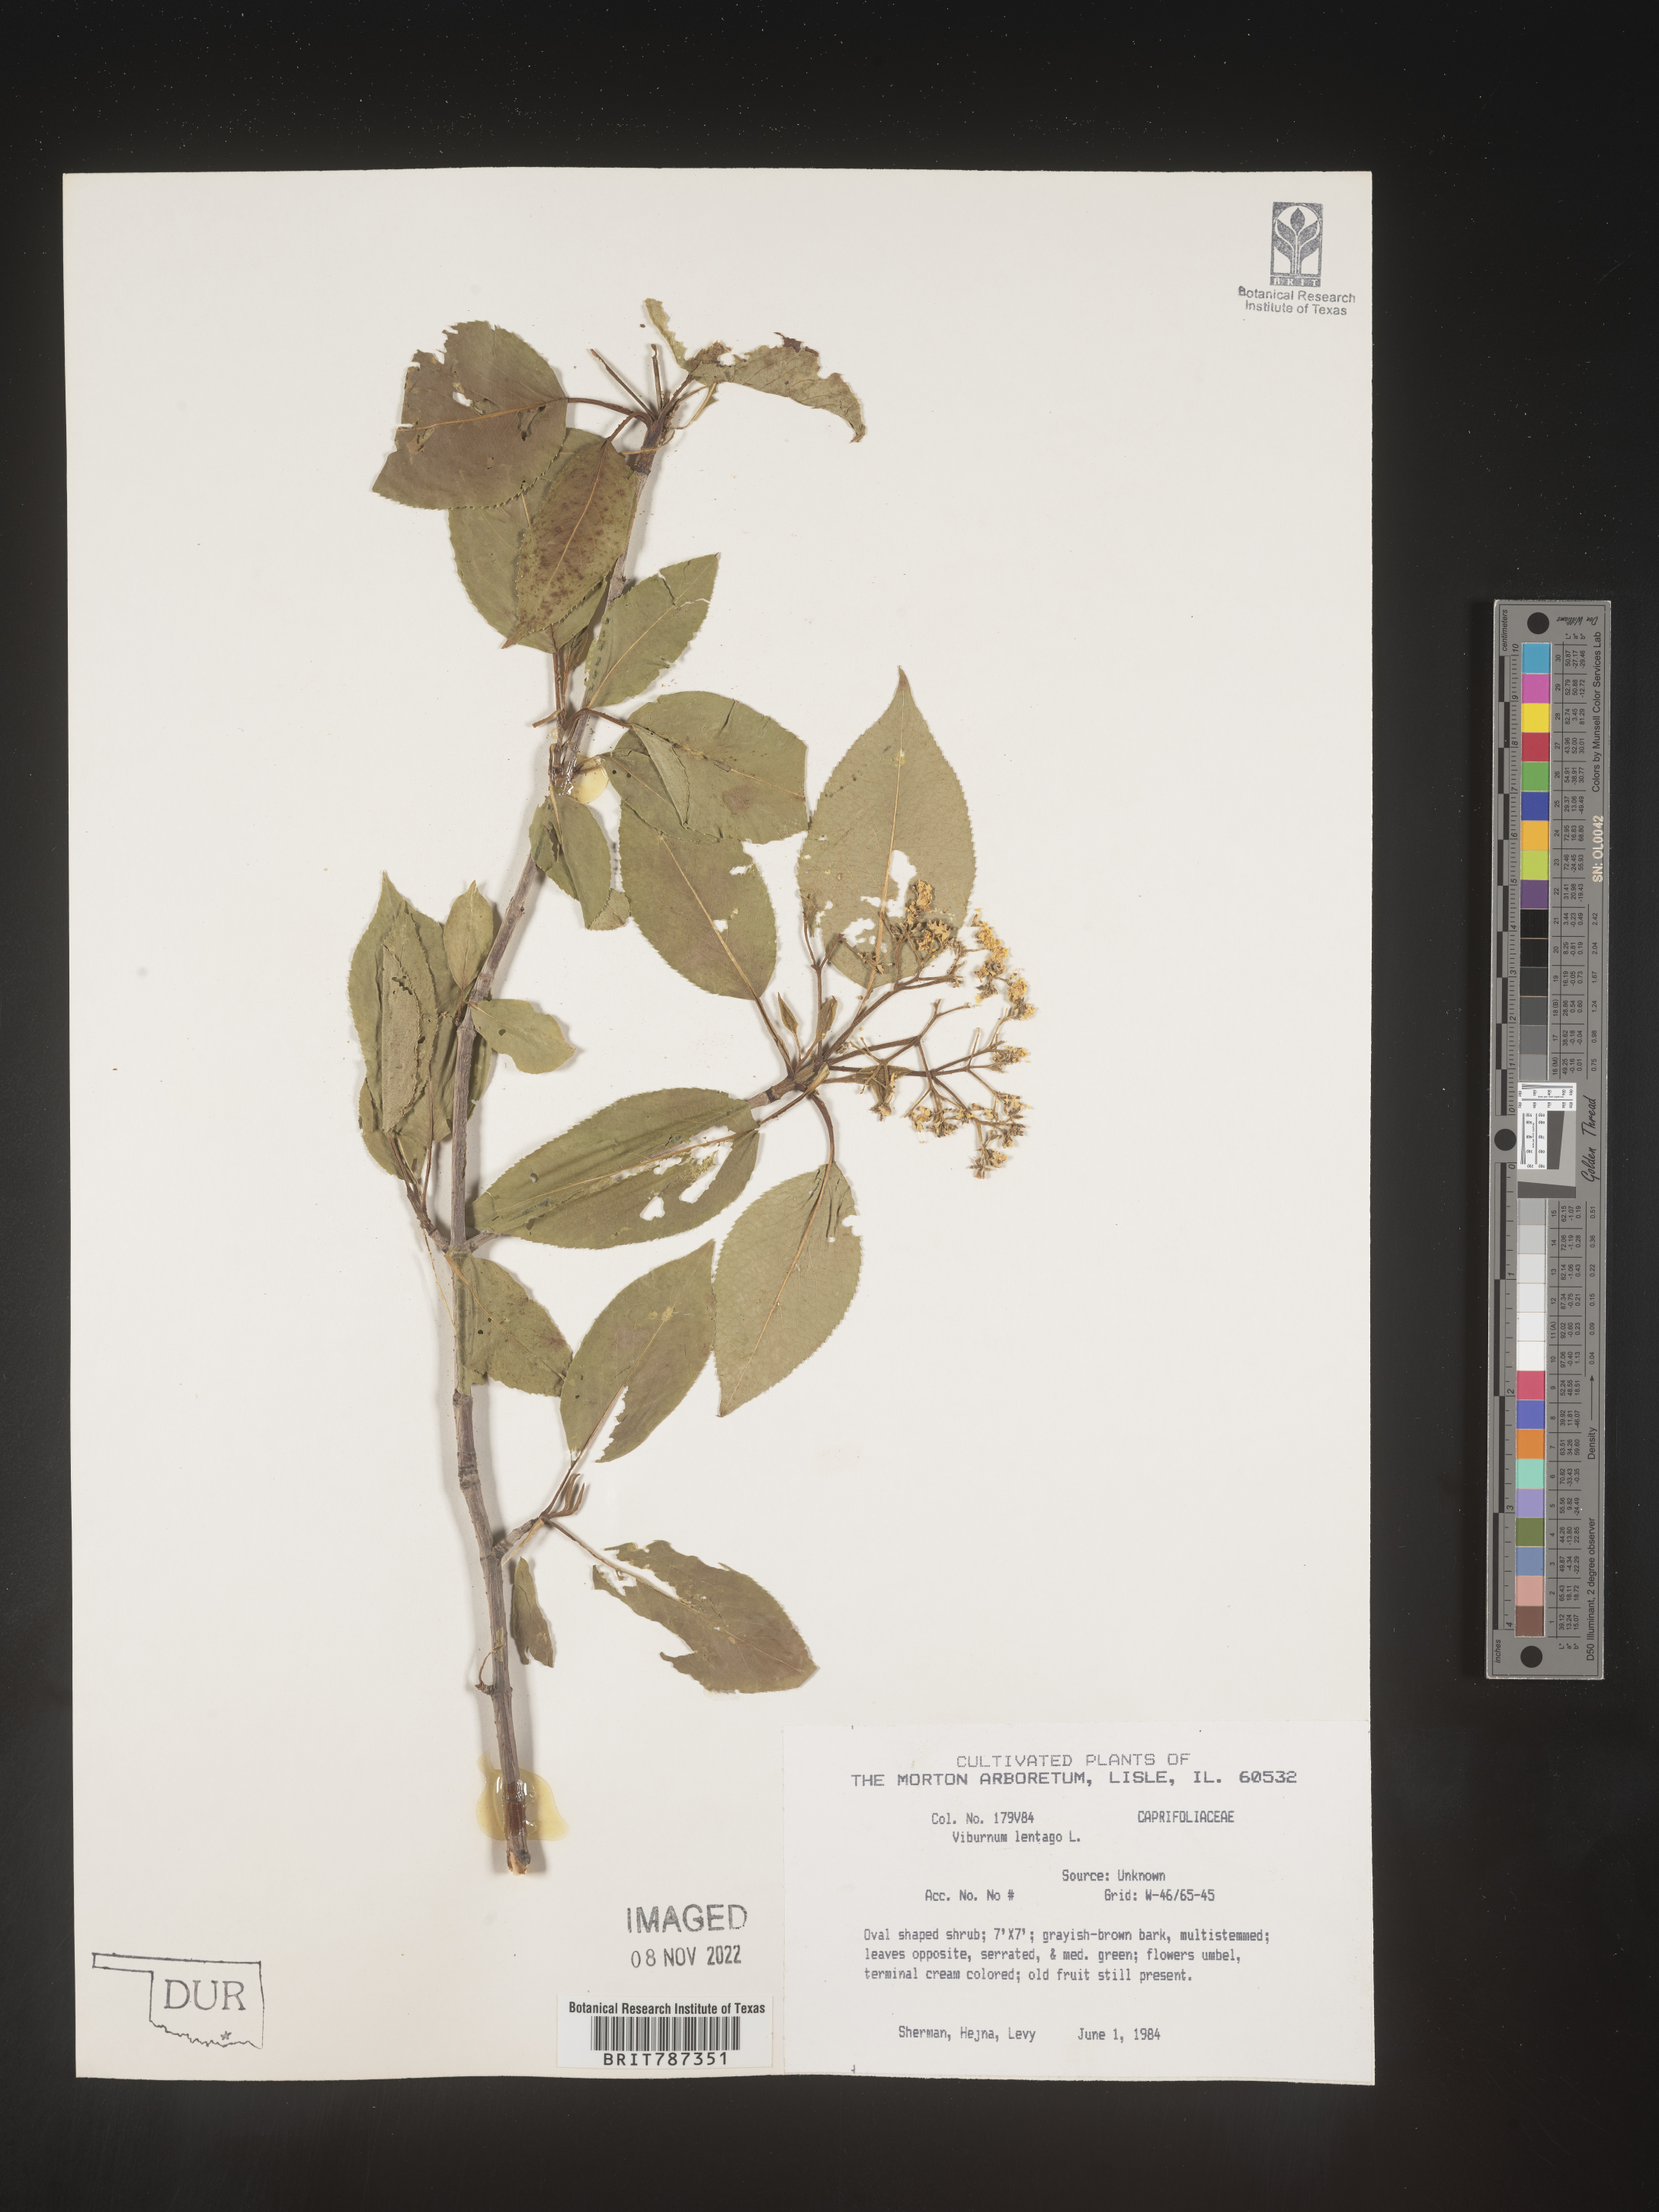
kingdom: Plantae
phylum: Tracheophyta
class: Magnoliopsida
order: Dipsacales
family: Viburnaceae
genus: Viburnum
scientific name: Viburnum
